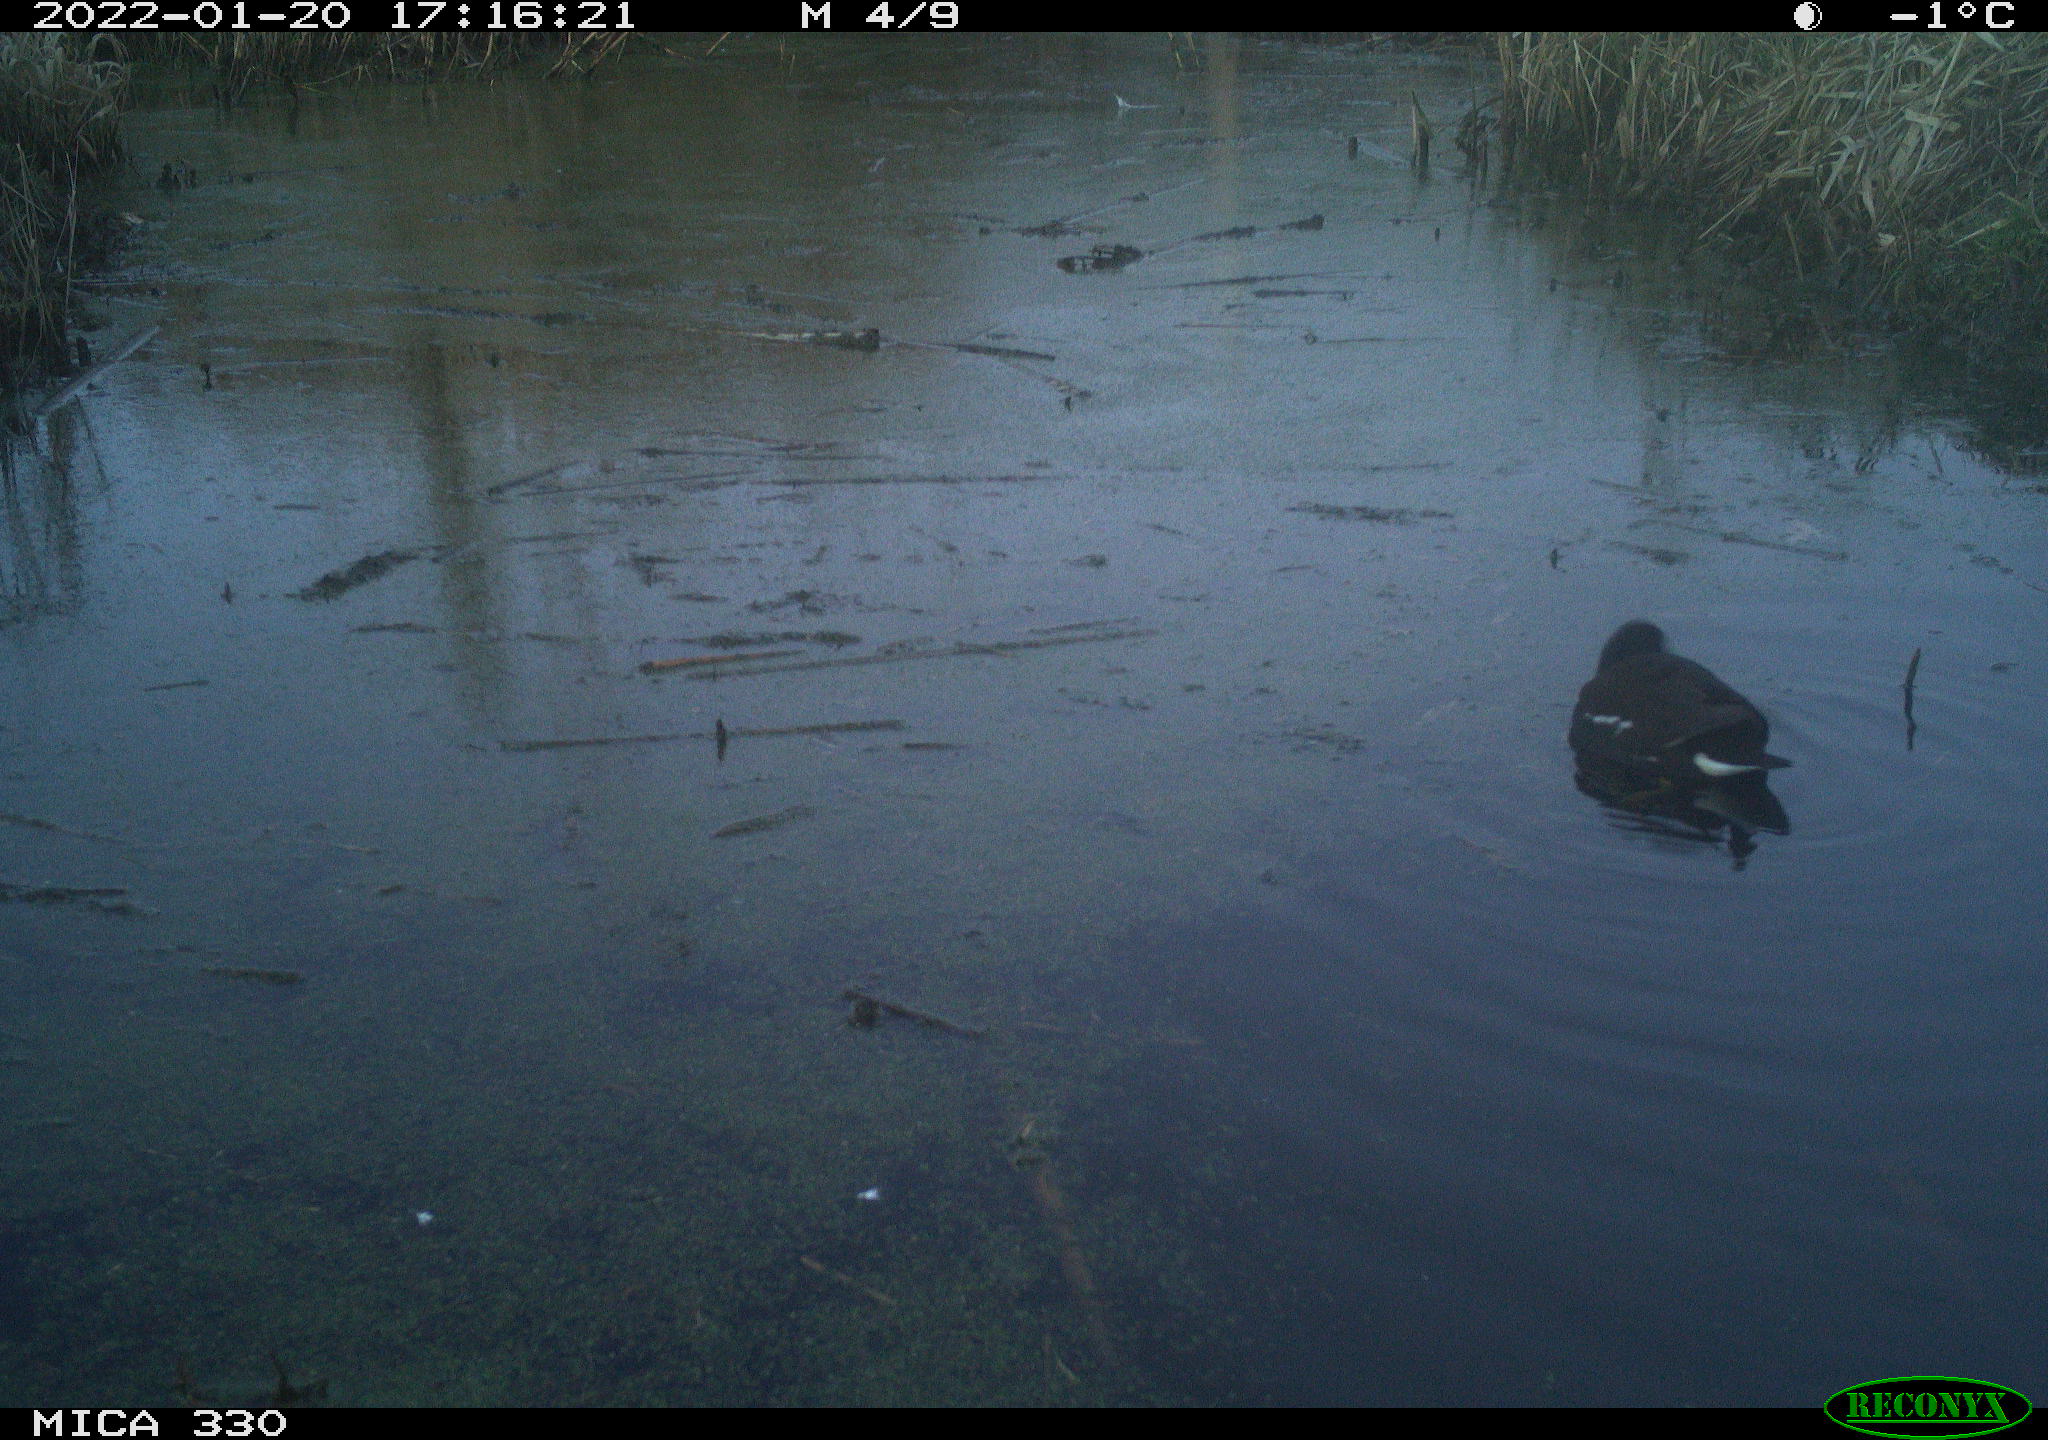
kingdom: Animalia
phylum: Chordata
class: Aves
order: Gruiformes
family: Rallidae
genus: Gallinula
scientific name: Gallinula chloropus
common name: Common moorhen
